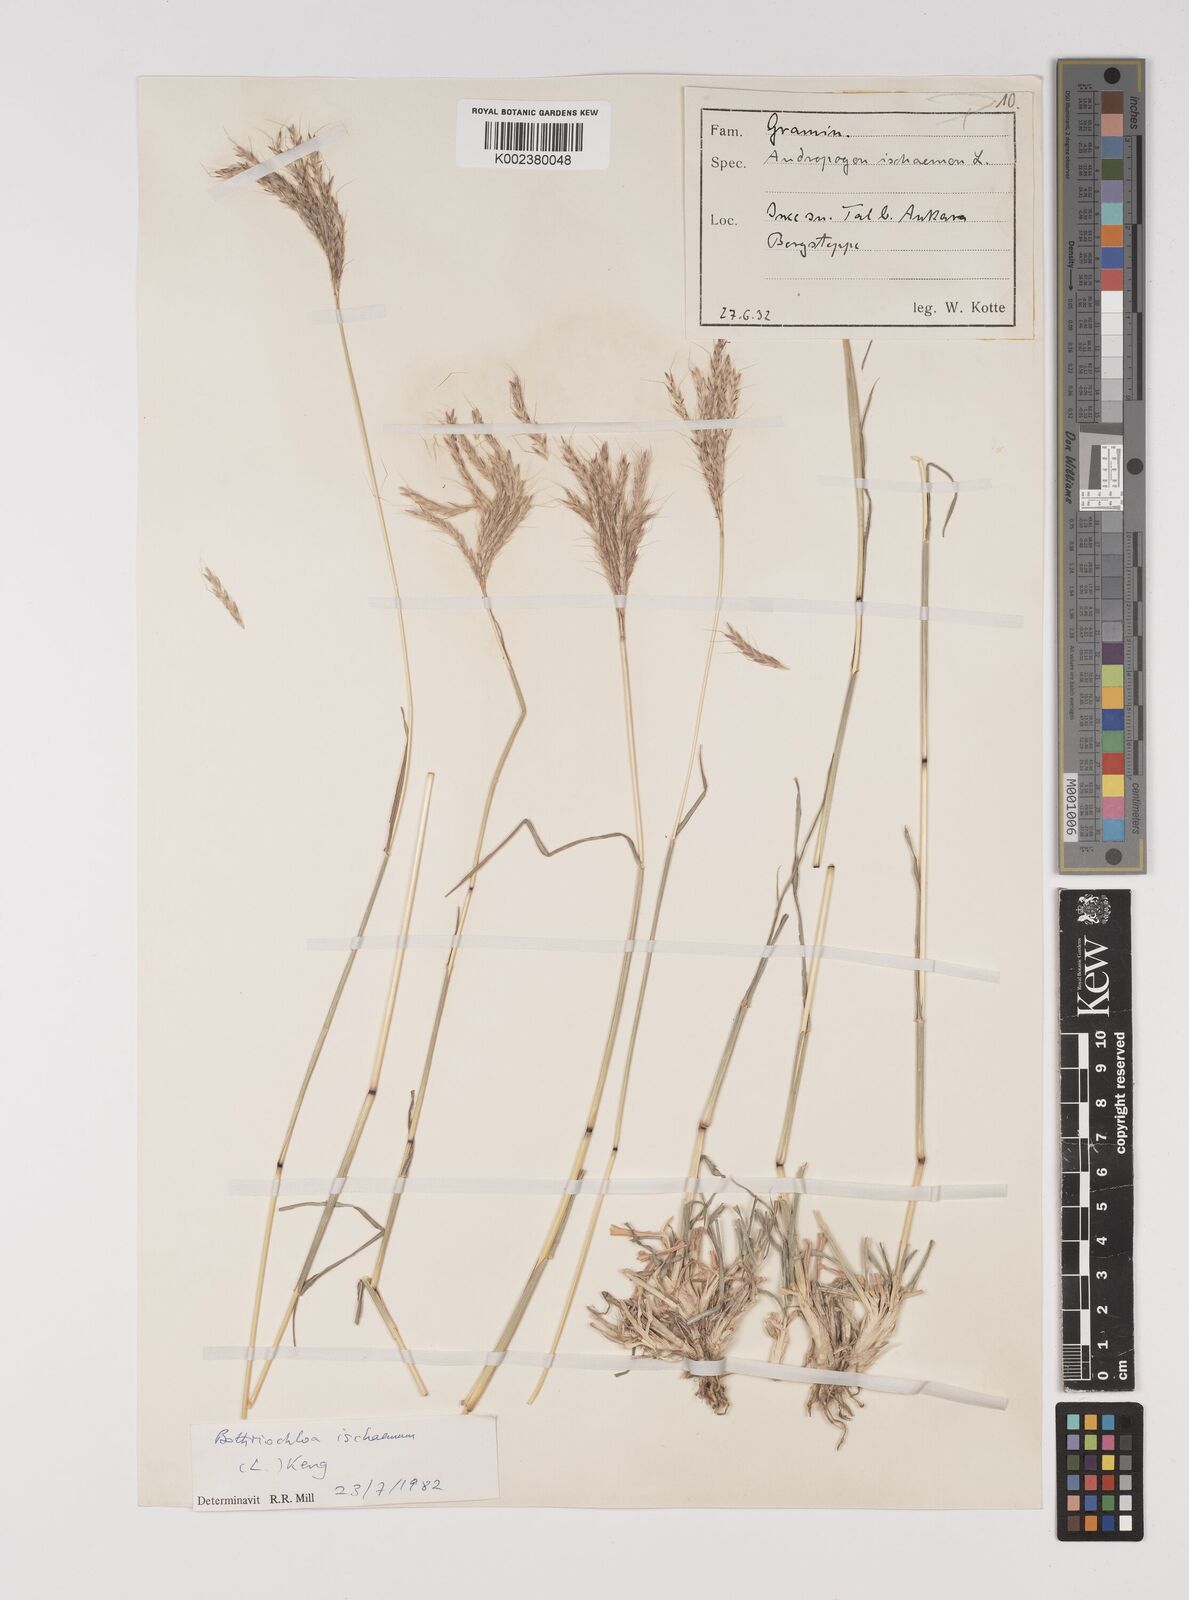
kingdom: Plantae
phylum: Tracheophyta
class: Liliopsida
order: Poales
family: Poaceae
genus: Bothriochloa
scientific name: Bothriochloa ischaemum
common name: Yellow bluestem
